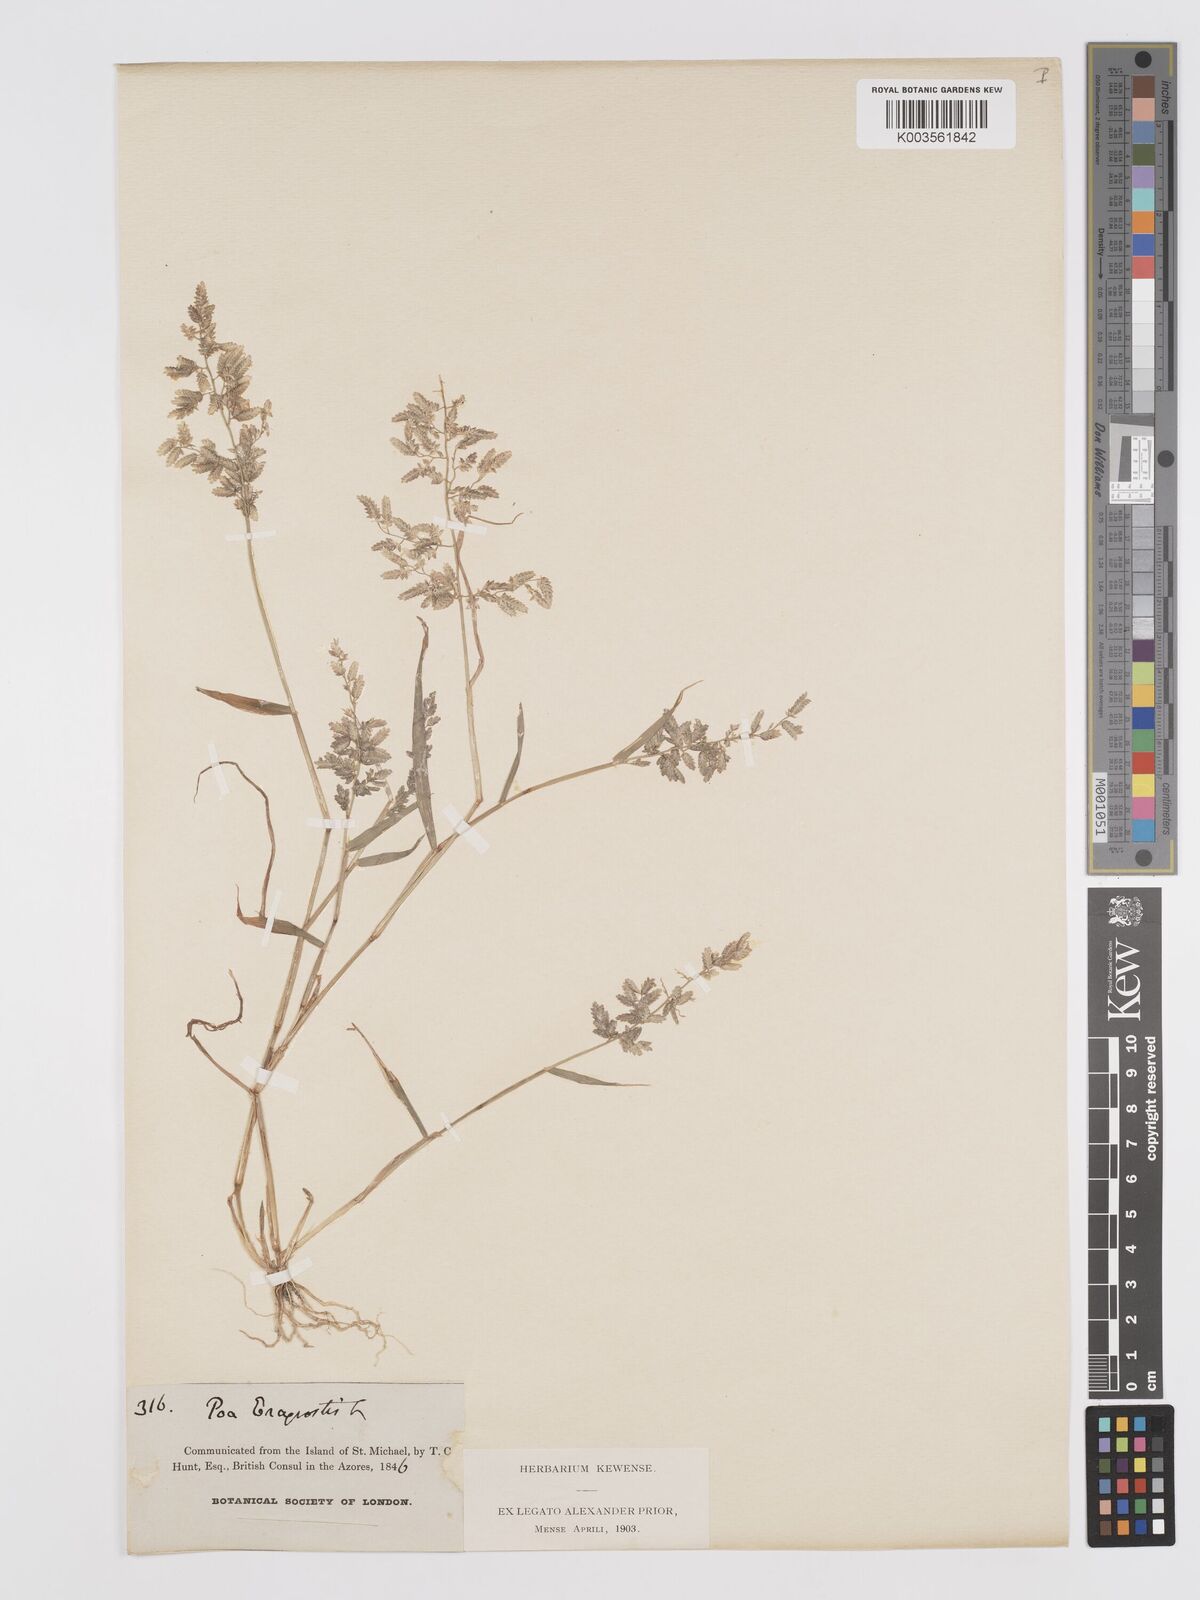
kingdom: Plantae
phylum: Tracheophyta
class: Liliopsida
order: Poales
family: Poaceae
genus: Eragrostis
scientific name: Eragrostis cilianensis
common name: Stinkgrass
